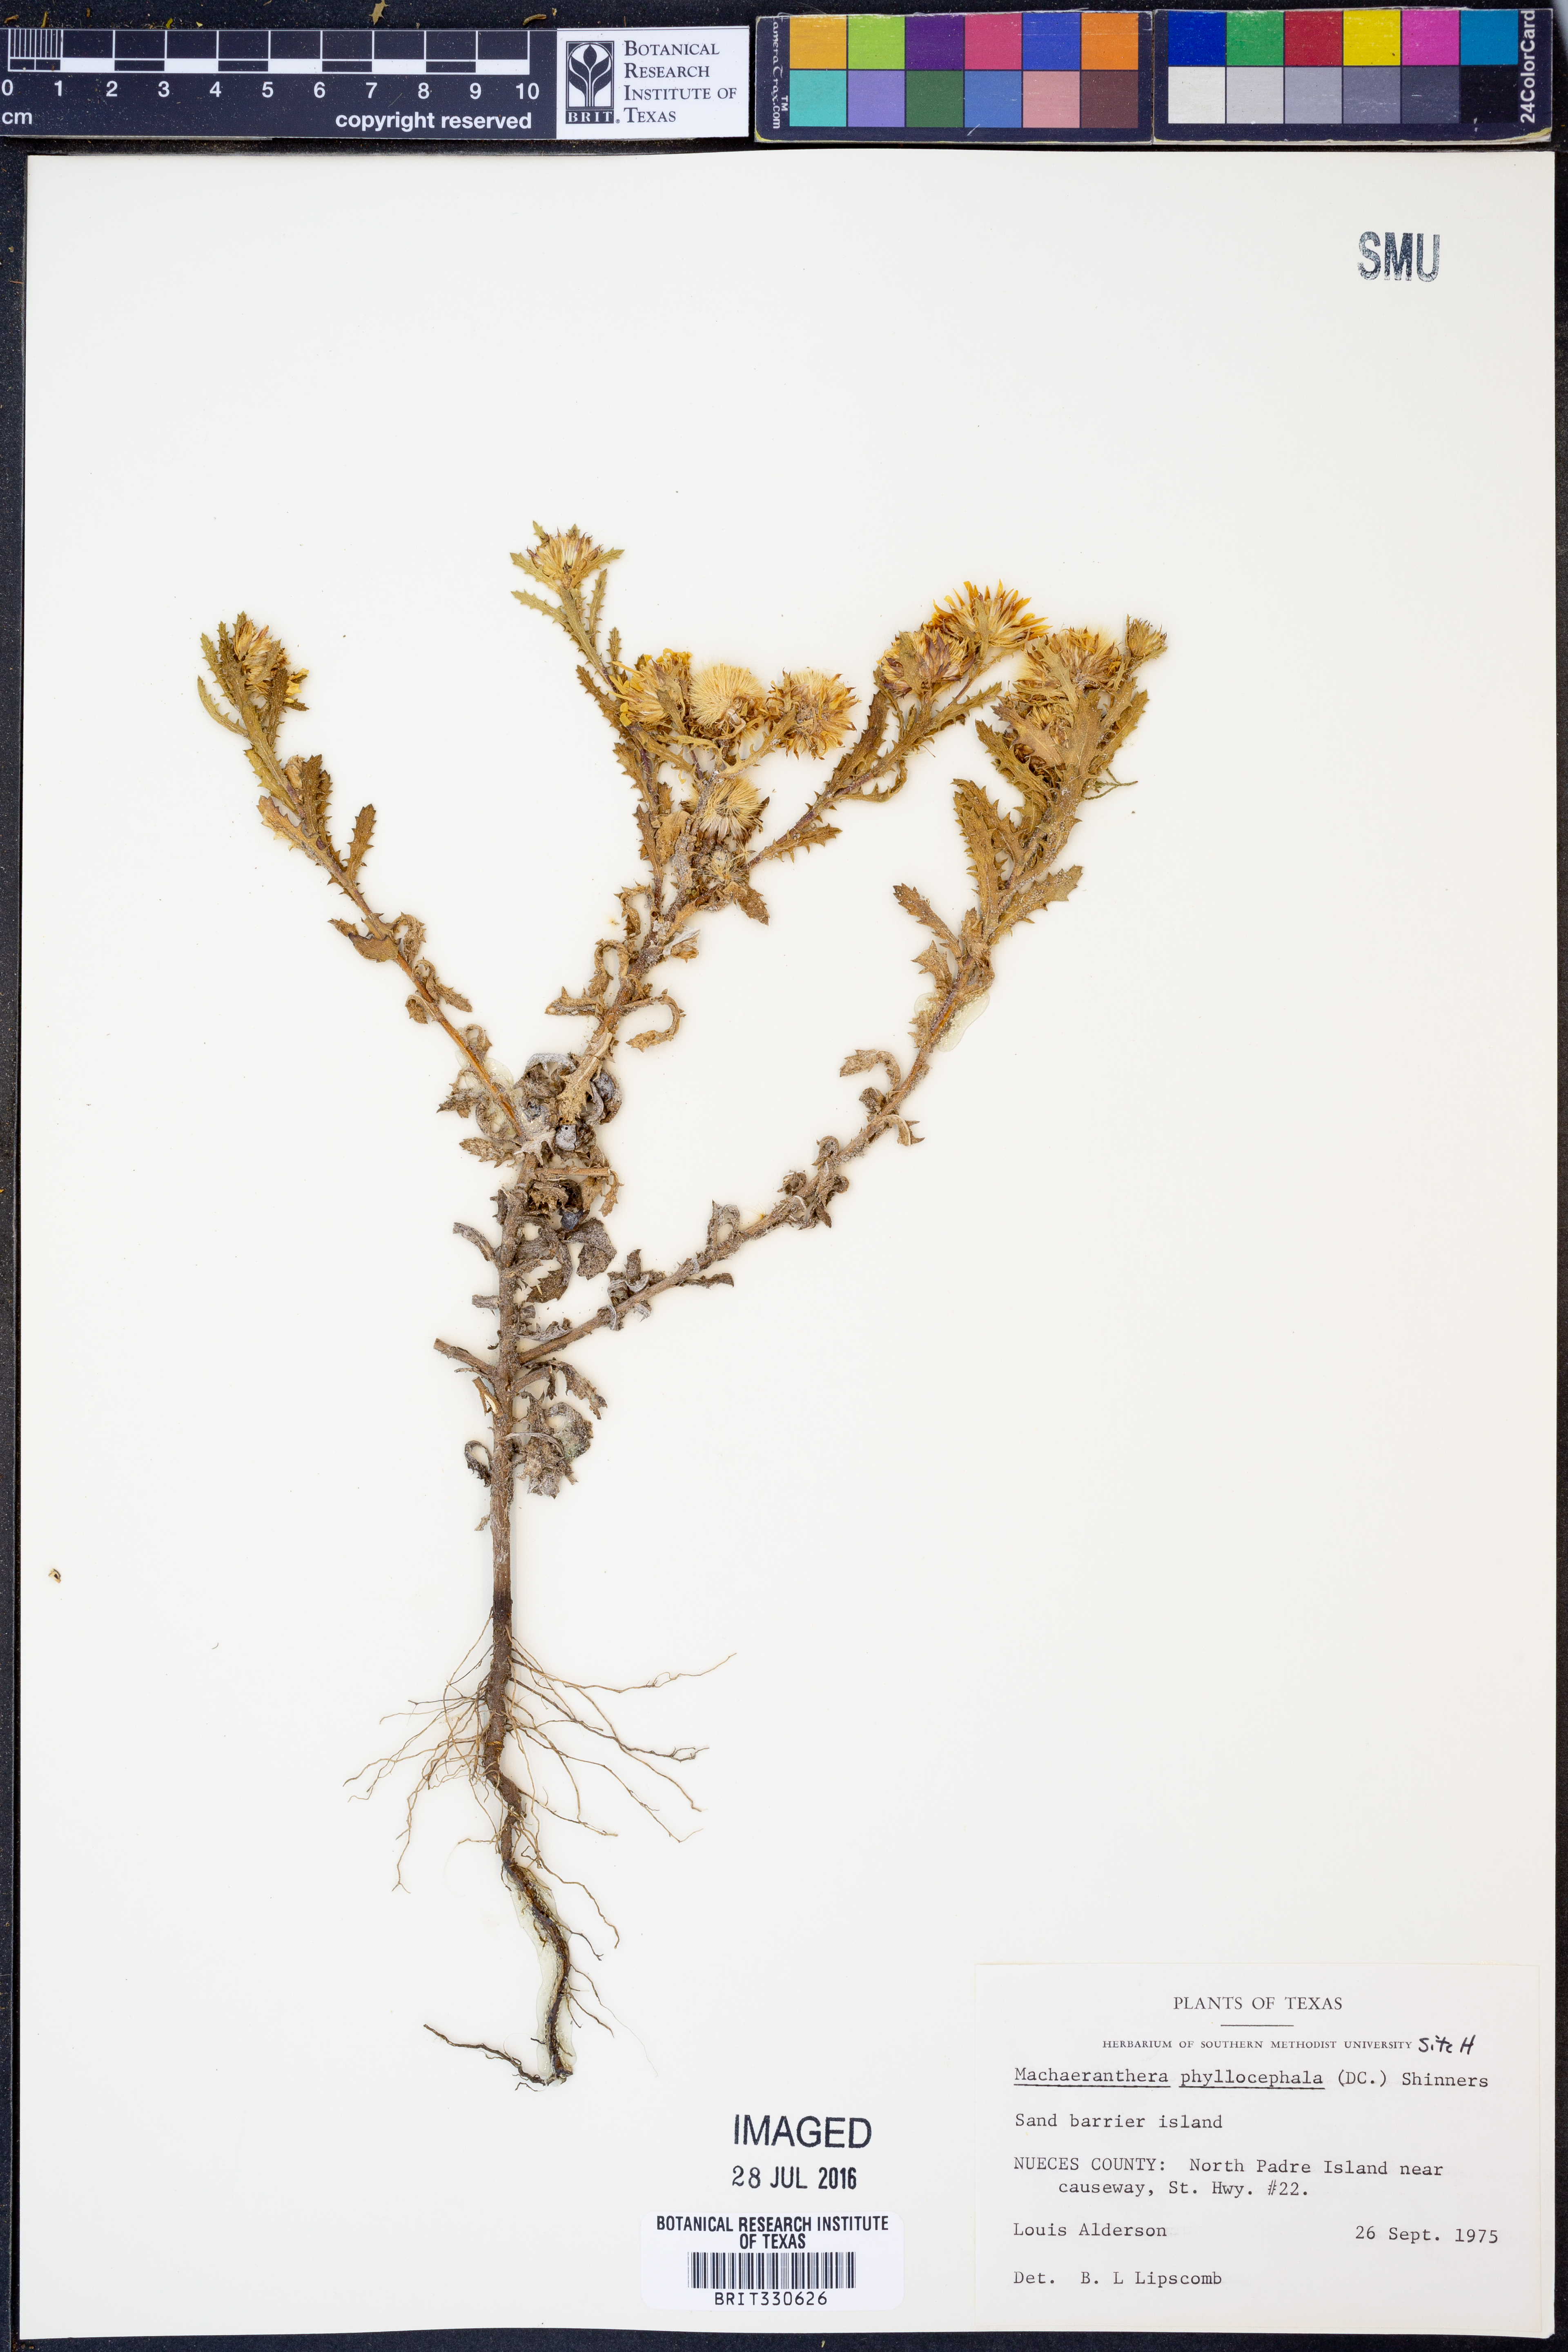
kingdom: Plantae
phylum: Tracheophyta
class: Magnoliopsida
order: Asterales
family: Asteraceae
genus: Rayjacksonia
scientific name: Rayjacksonia phyllocephala
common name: Gulf coast camphor daisy
